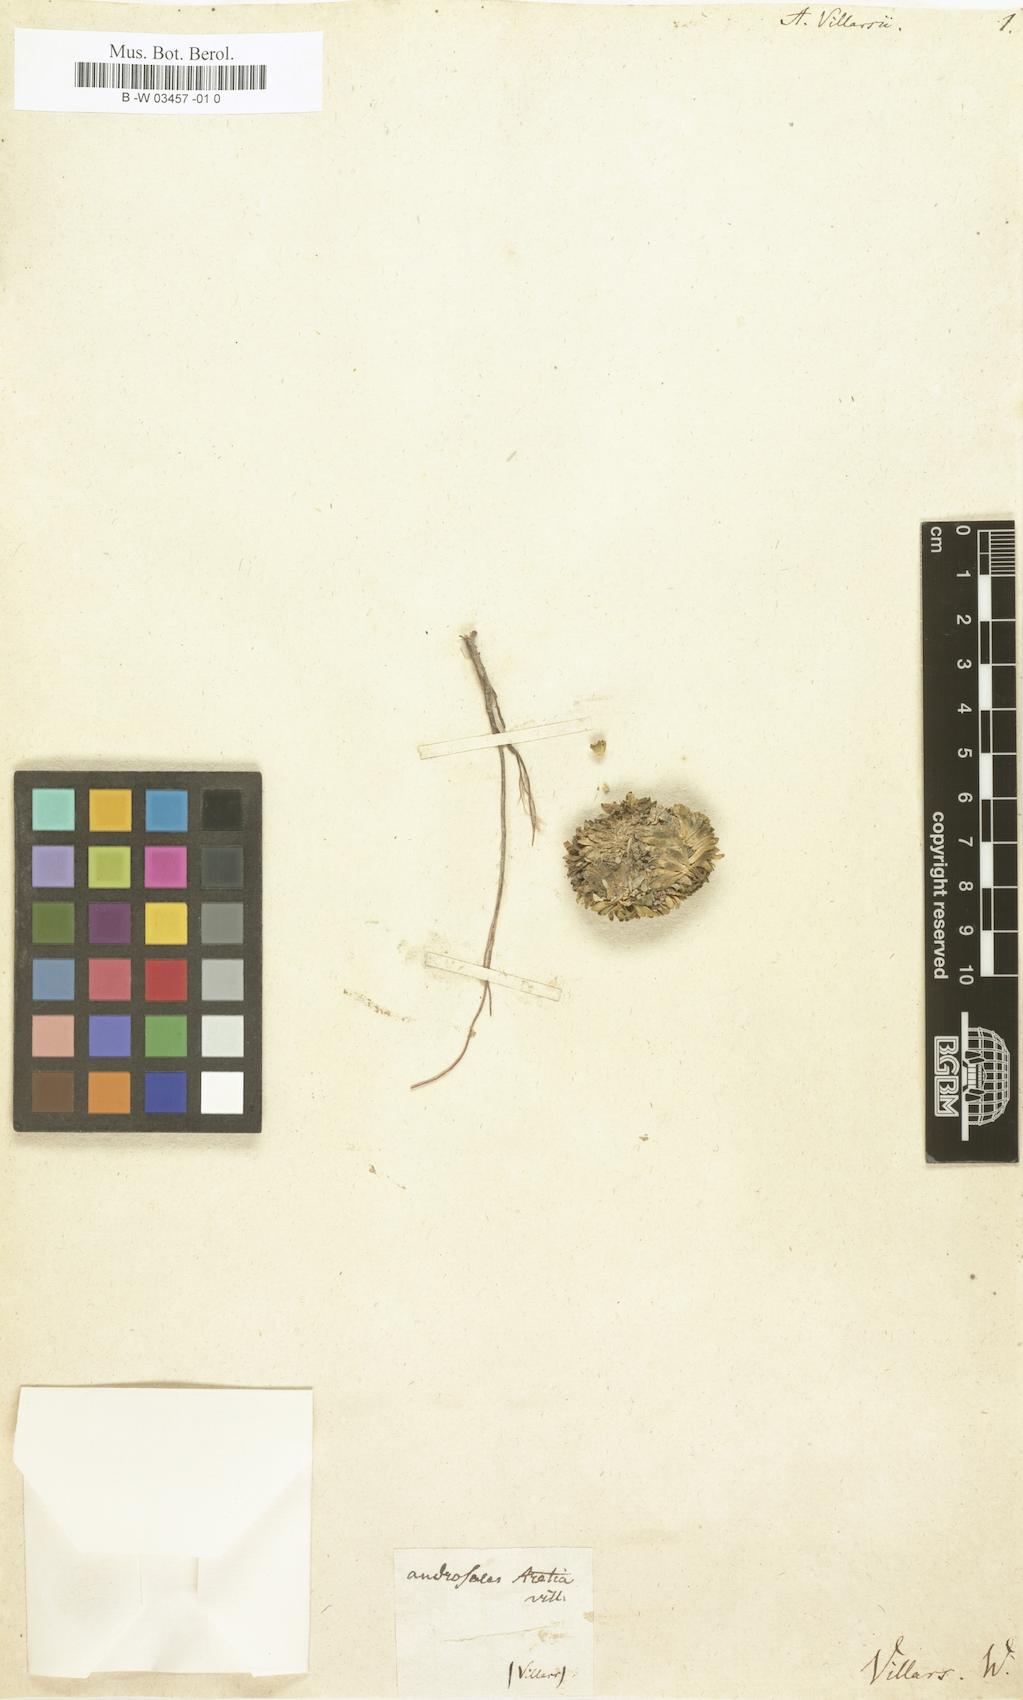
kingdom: Plantae
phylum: Tracheophyta
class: Magnoliopsida
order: Ericales
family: Primulaceae
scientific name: Primulaceae
